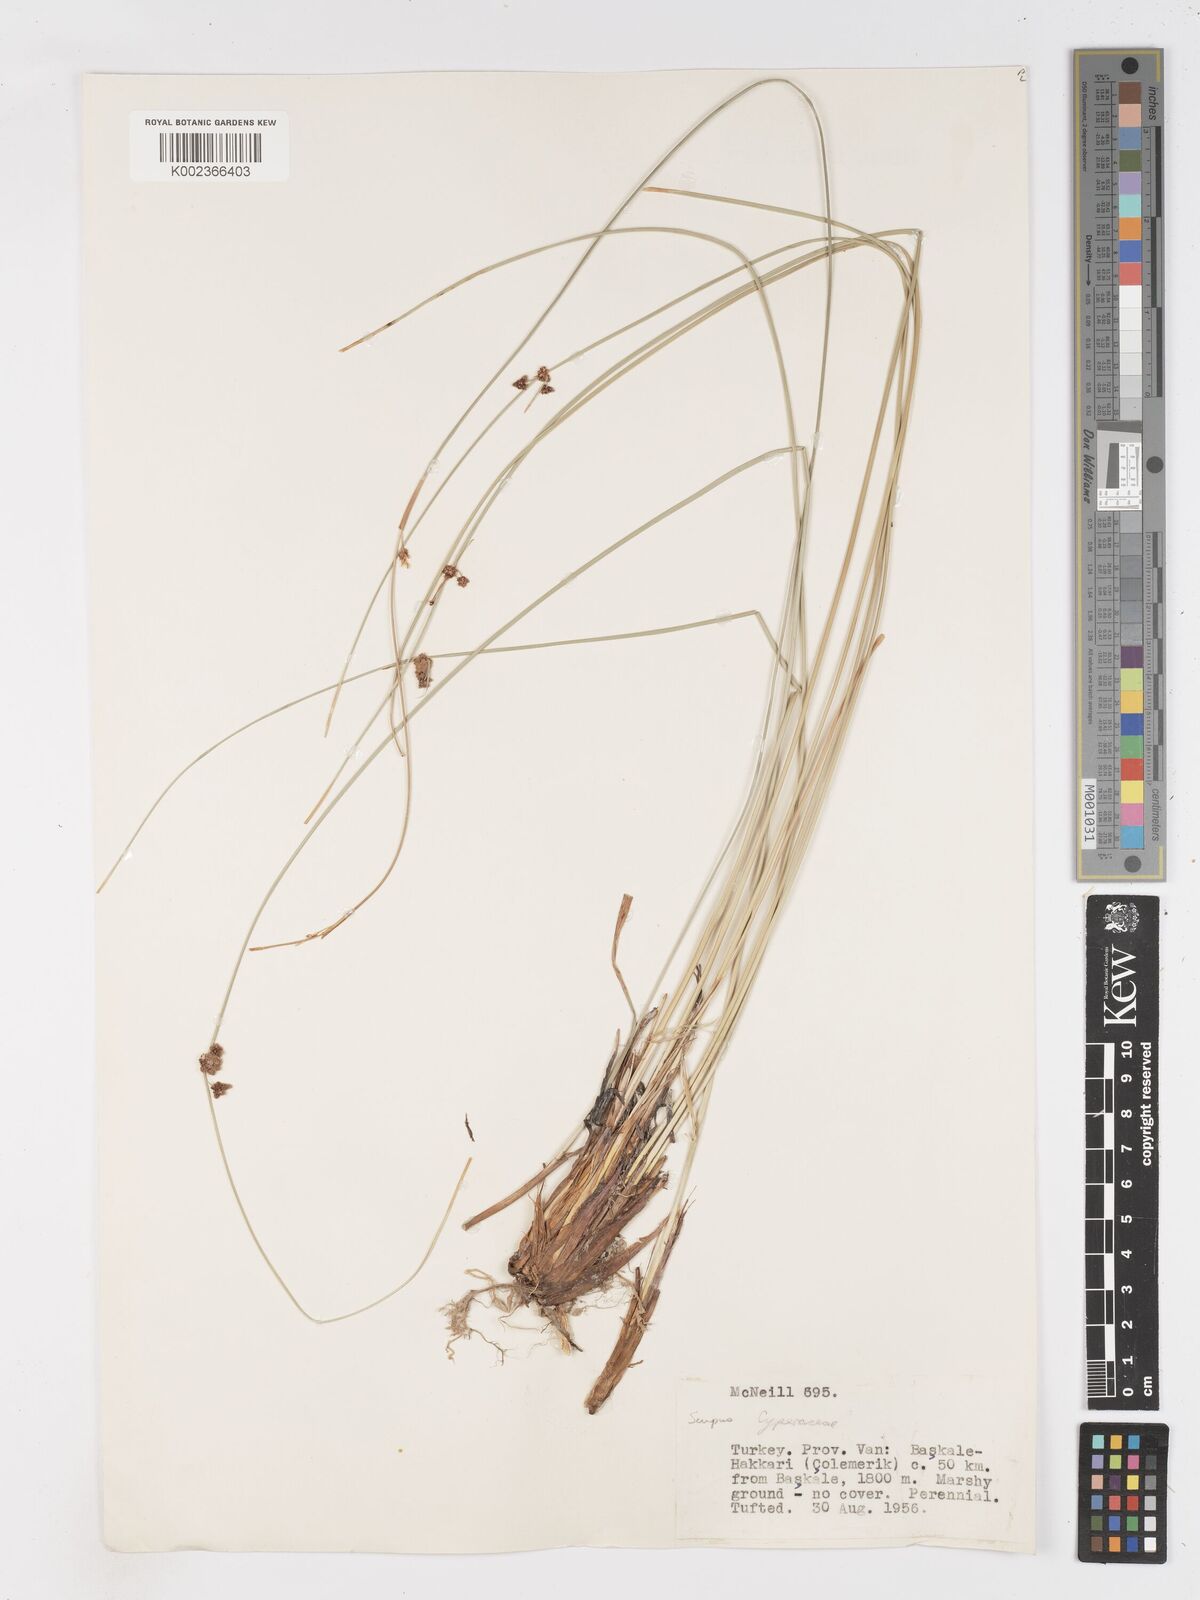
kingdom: Plantae
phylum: Tracheophyta
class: Liliopsida
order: Poales
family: Cyperaceae
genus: Scirpoides
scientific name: Scirpoides holoschoenus
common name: Round-headed club-rush
